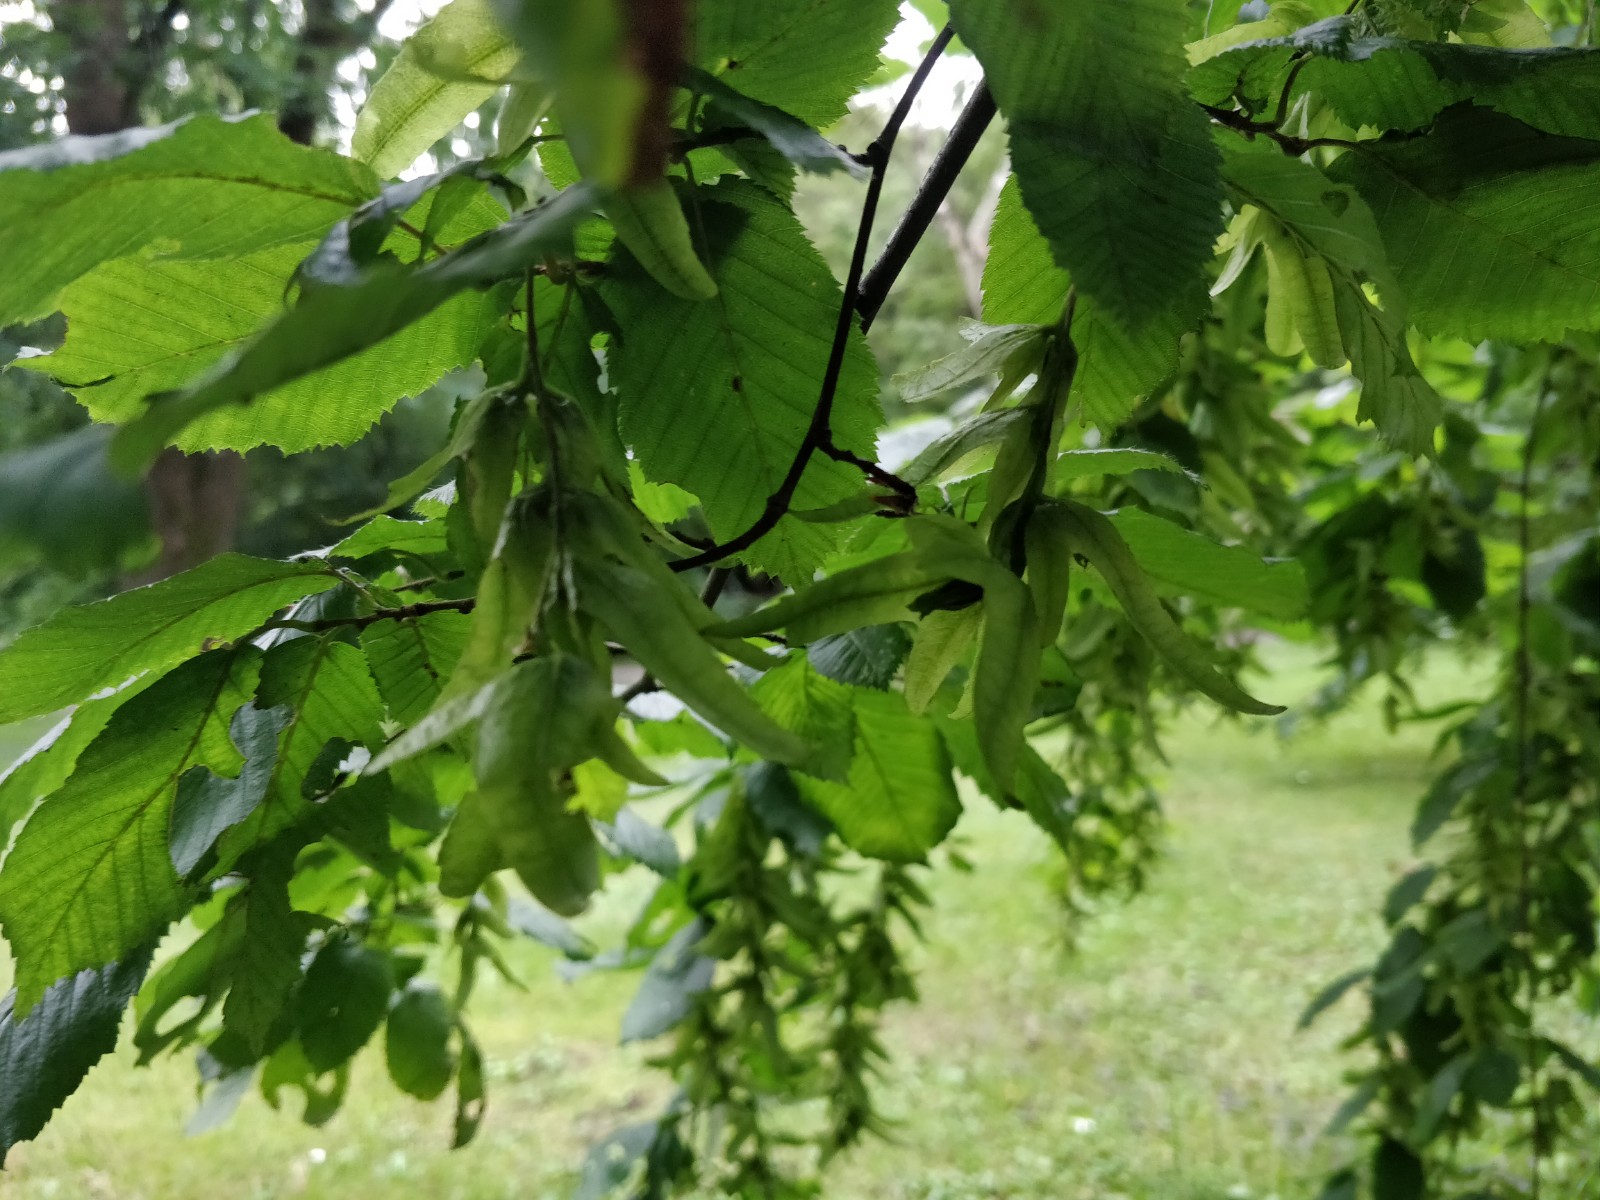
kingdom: Fungi
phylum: Basidiomycota
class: Agaricomycetes
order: Russulales
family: Russulaceae
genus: Lactarius
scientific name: Lactarius circellatus
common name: avnbøg-mælkehat
